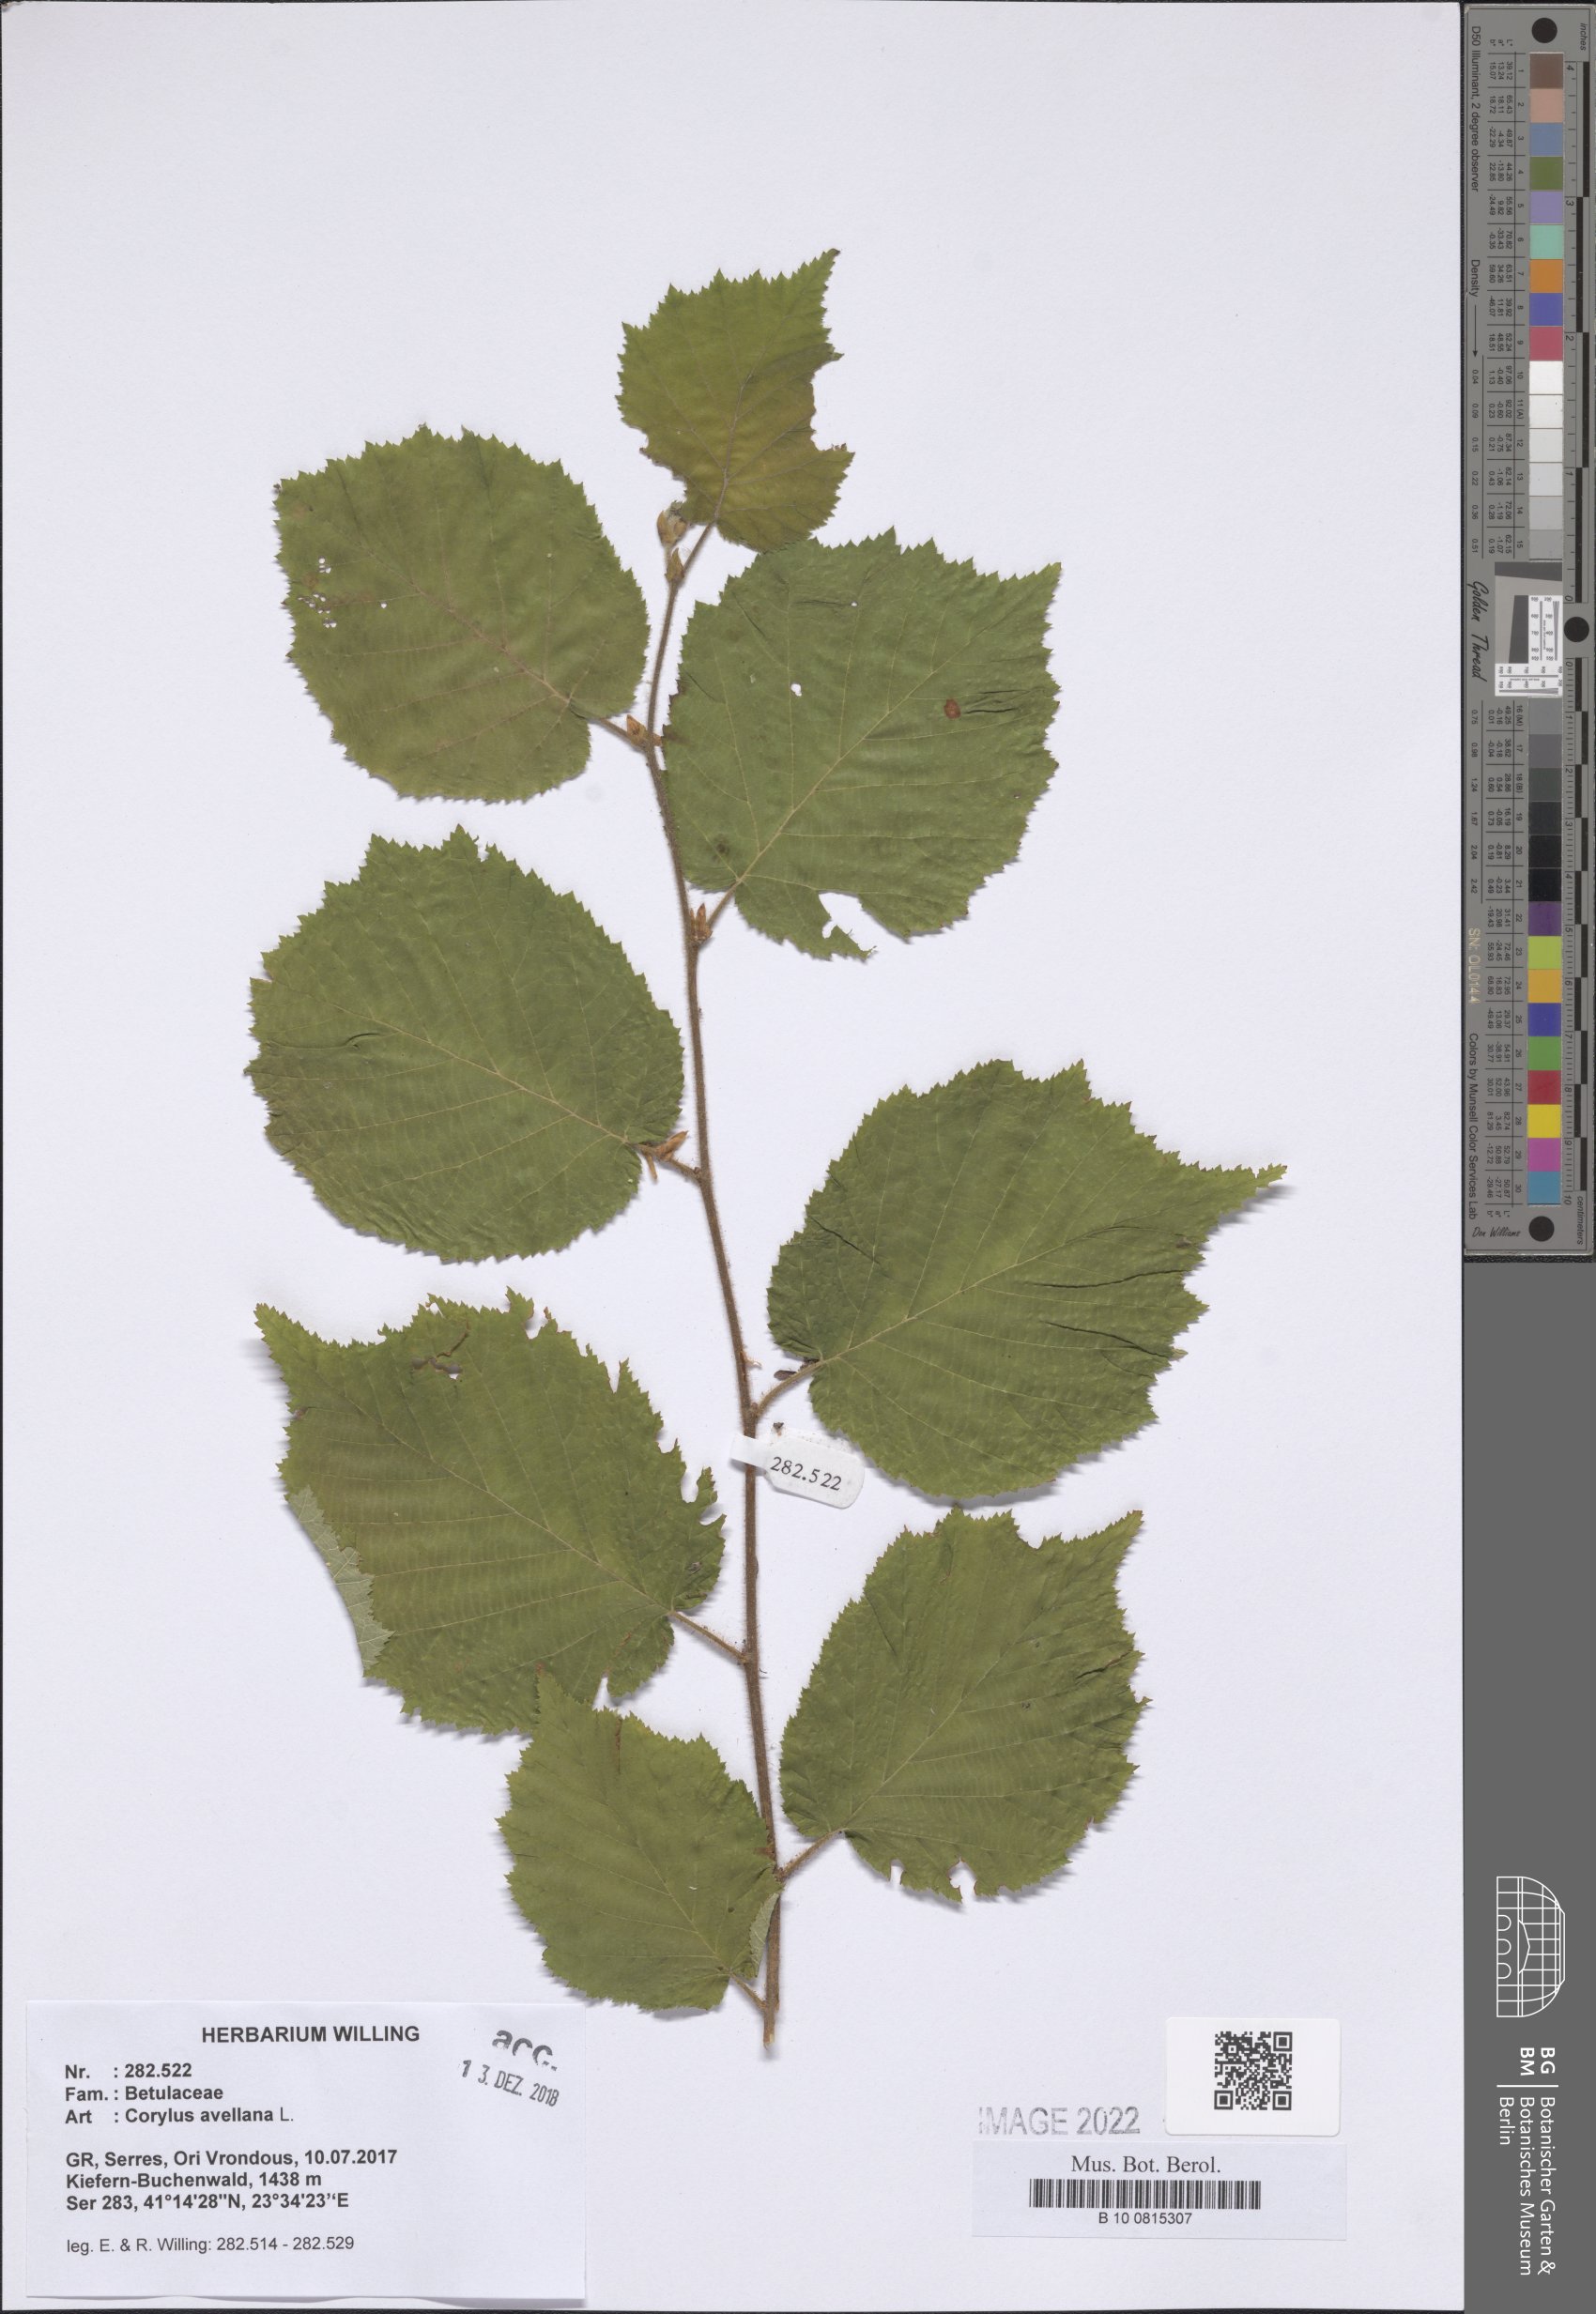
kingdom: Plantae
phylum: Tracheophyta
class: Magnoliopsida
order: Fagales
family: Betulaceae
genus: Corylus
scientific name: Corylus avellana
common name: European hazel
